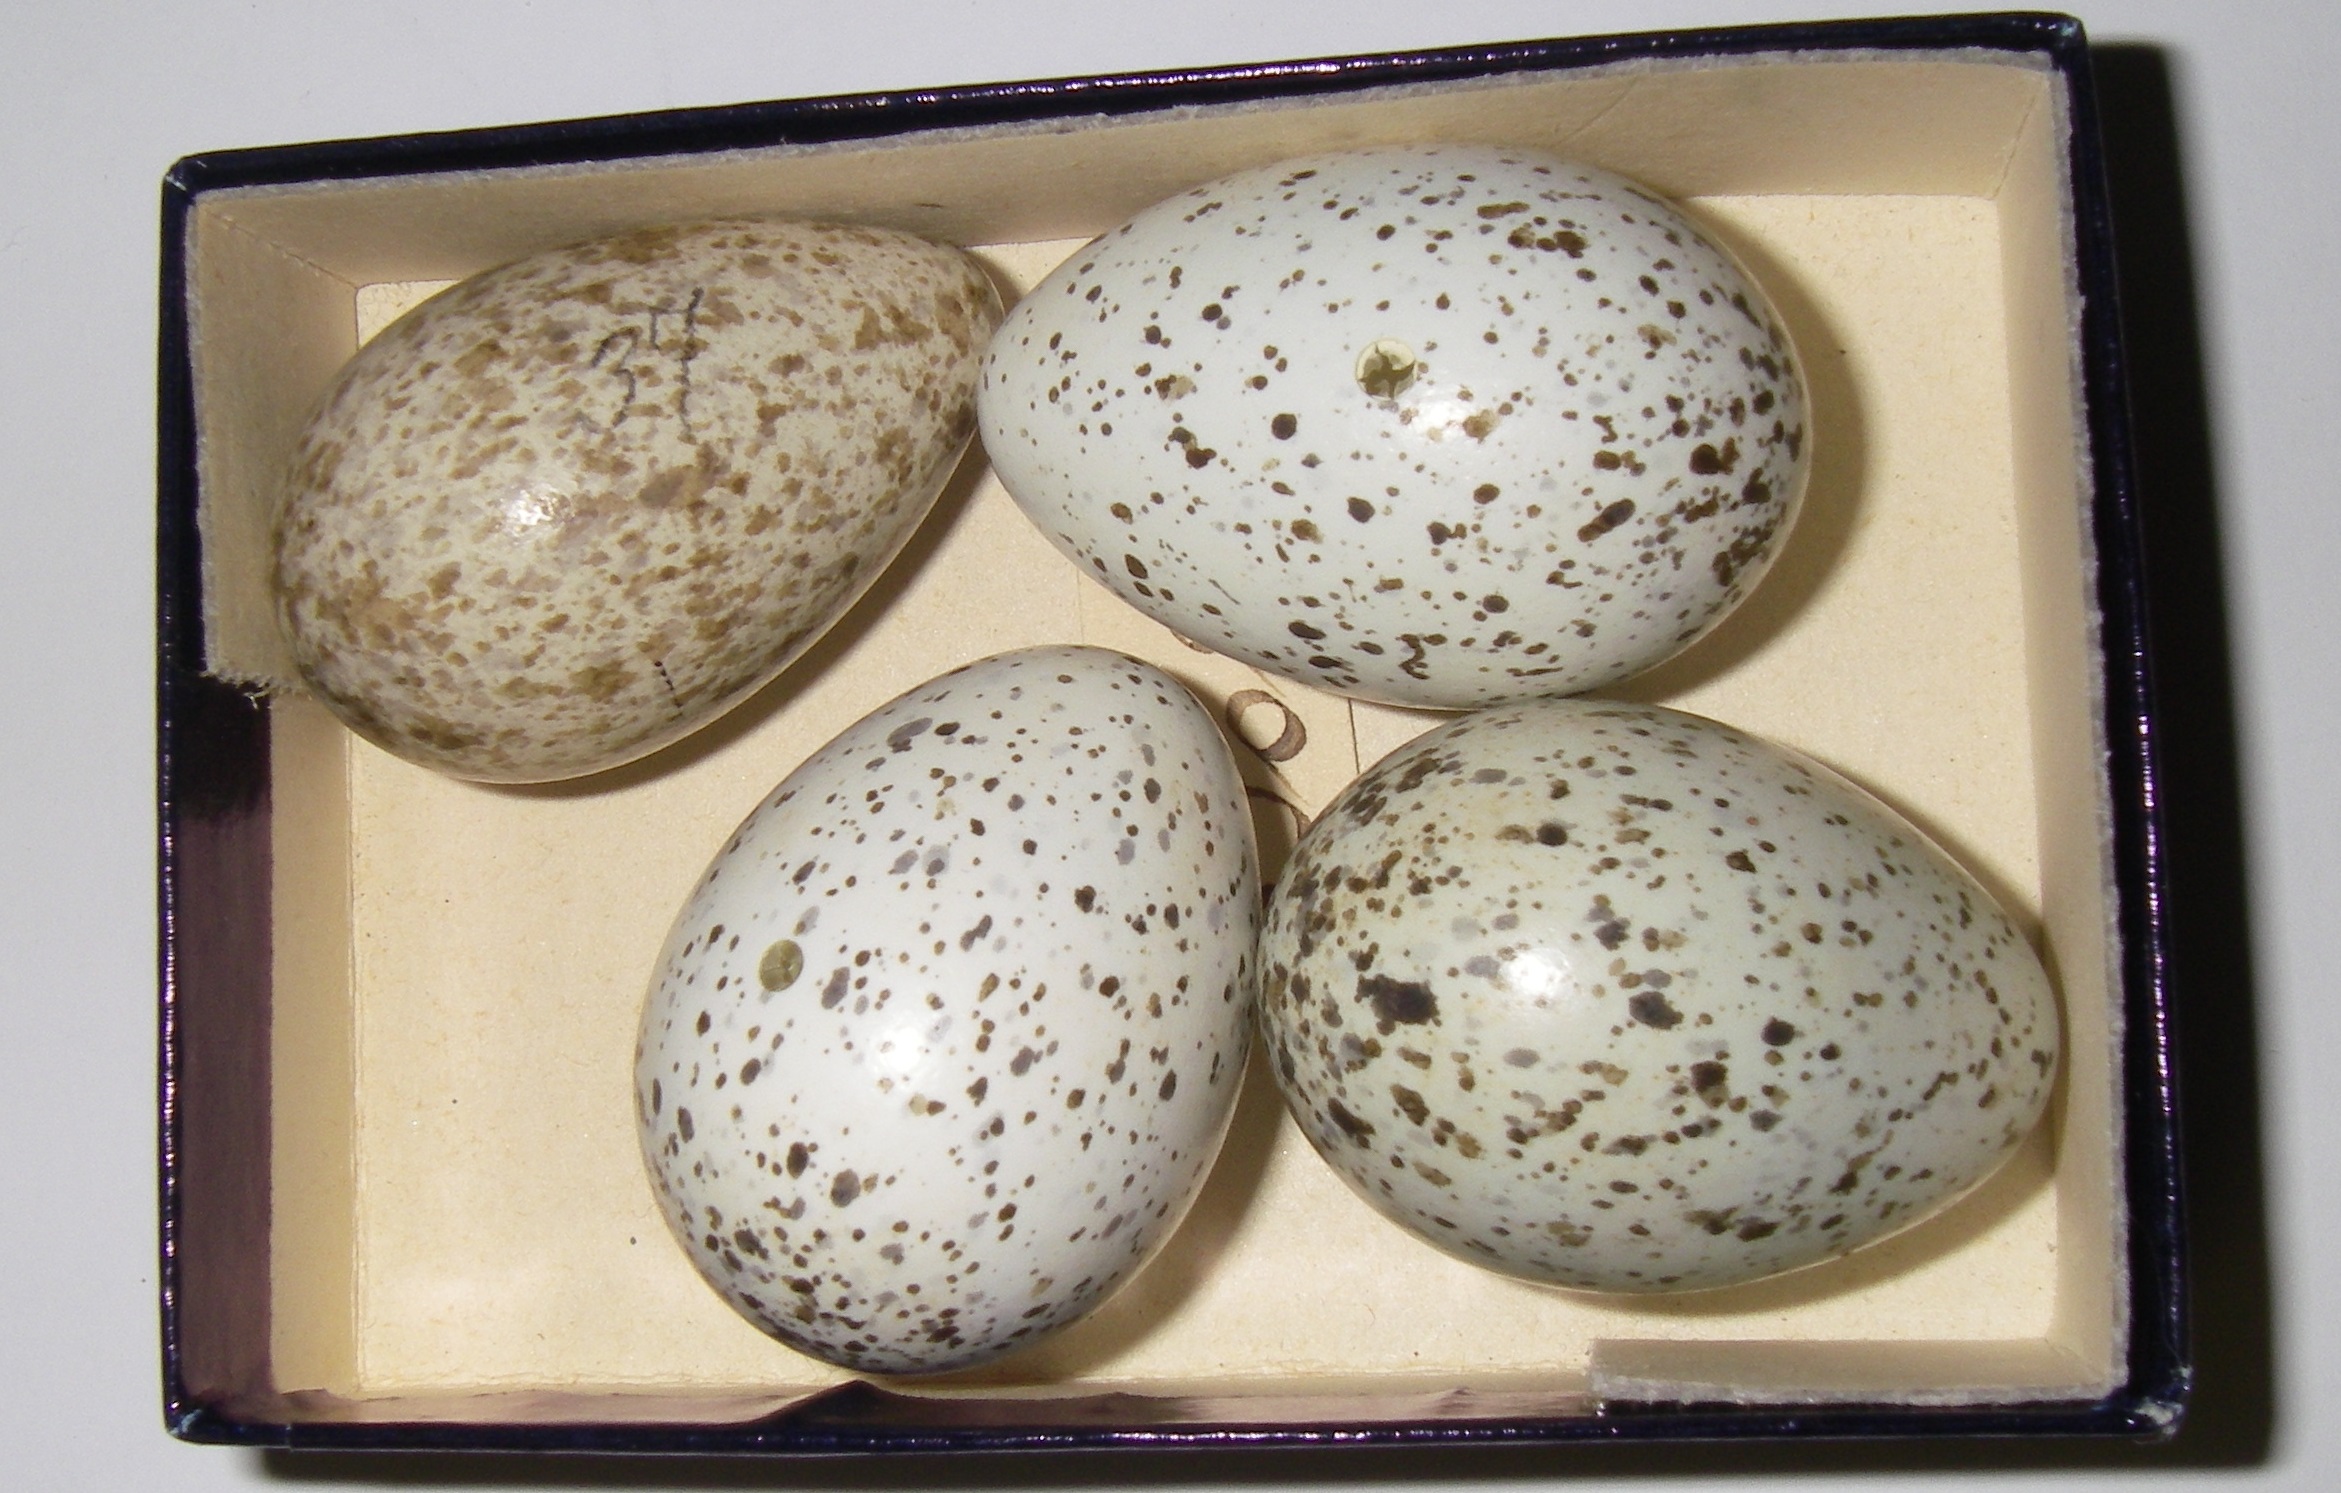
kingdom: Animalia
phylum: Chordata
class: Aves
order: Passeriformes
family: Corvidae
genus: Coloeus
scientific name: Coloeus monedula
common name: Western jackdaw
